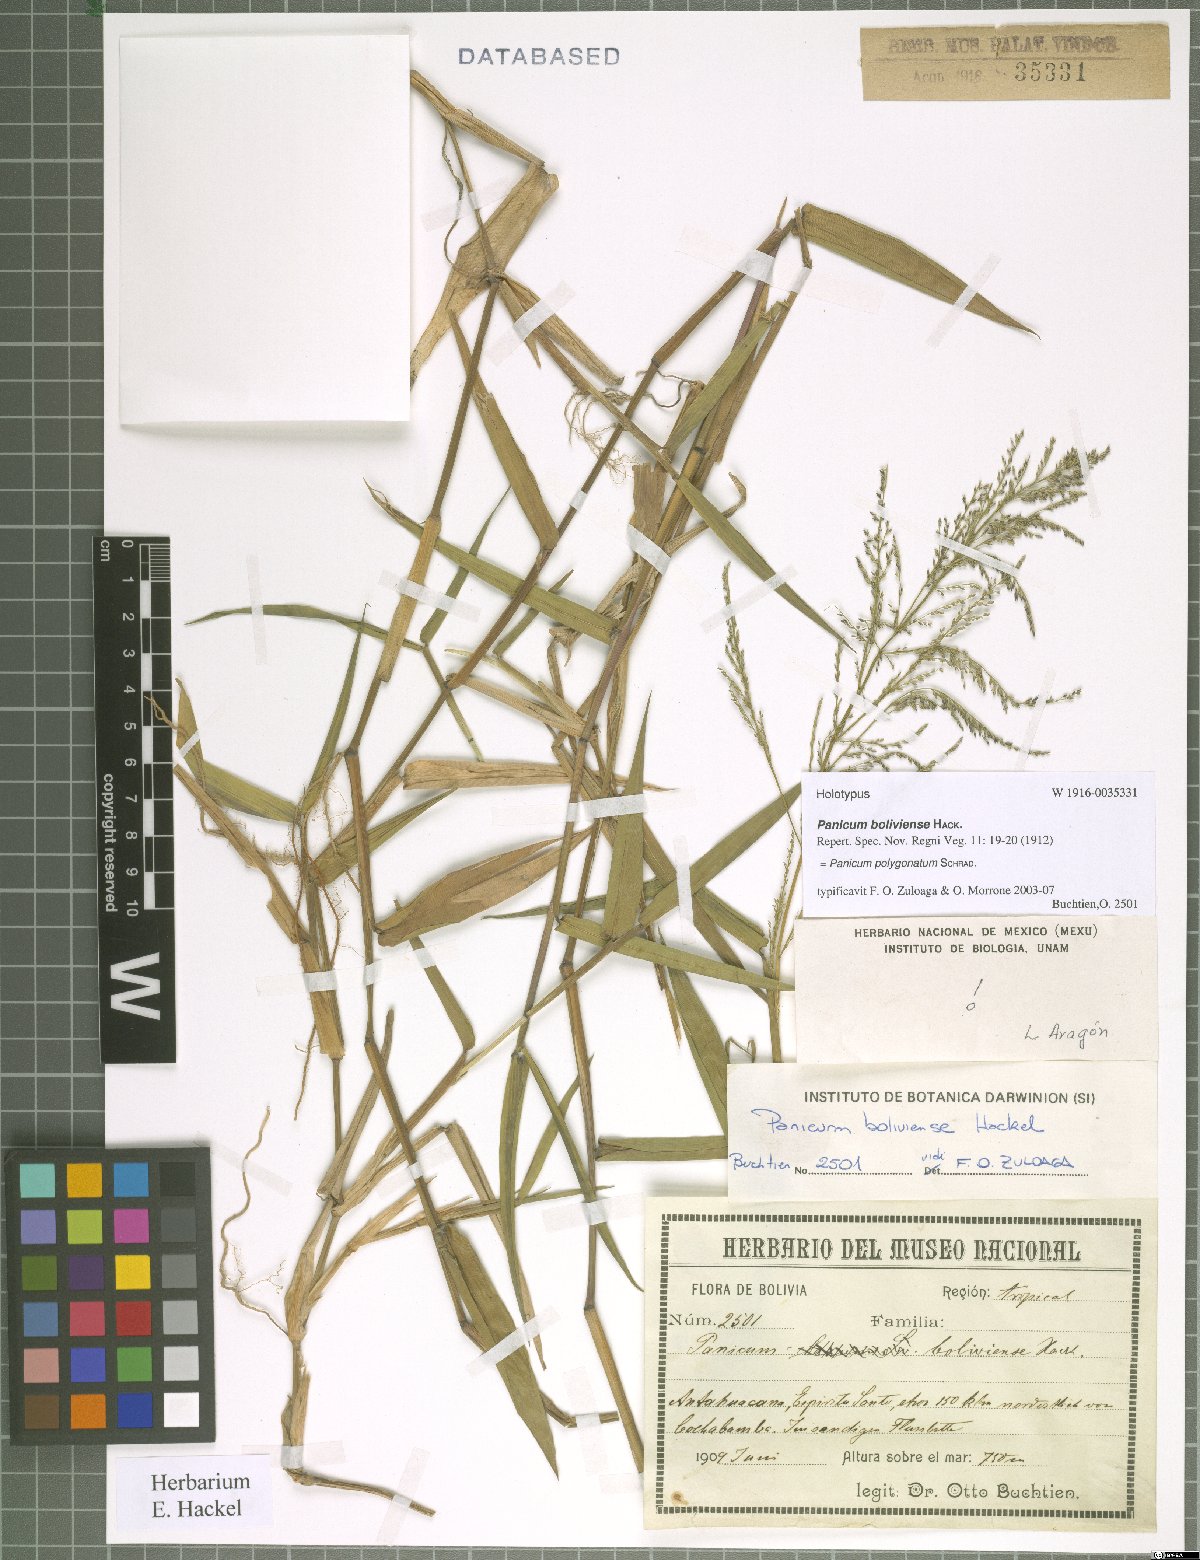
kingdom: Plantae
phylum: Tracheophyta
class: Liliopsida
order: Poales
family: Poaceae
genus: Rugoloa
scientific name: Rugoloa polygonata
